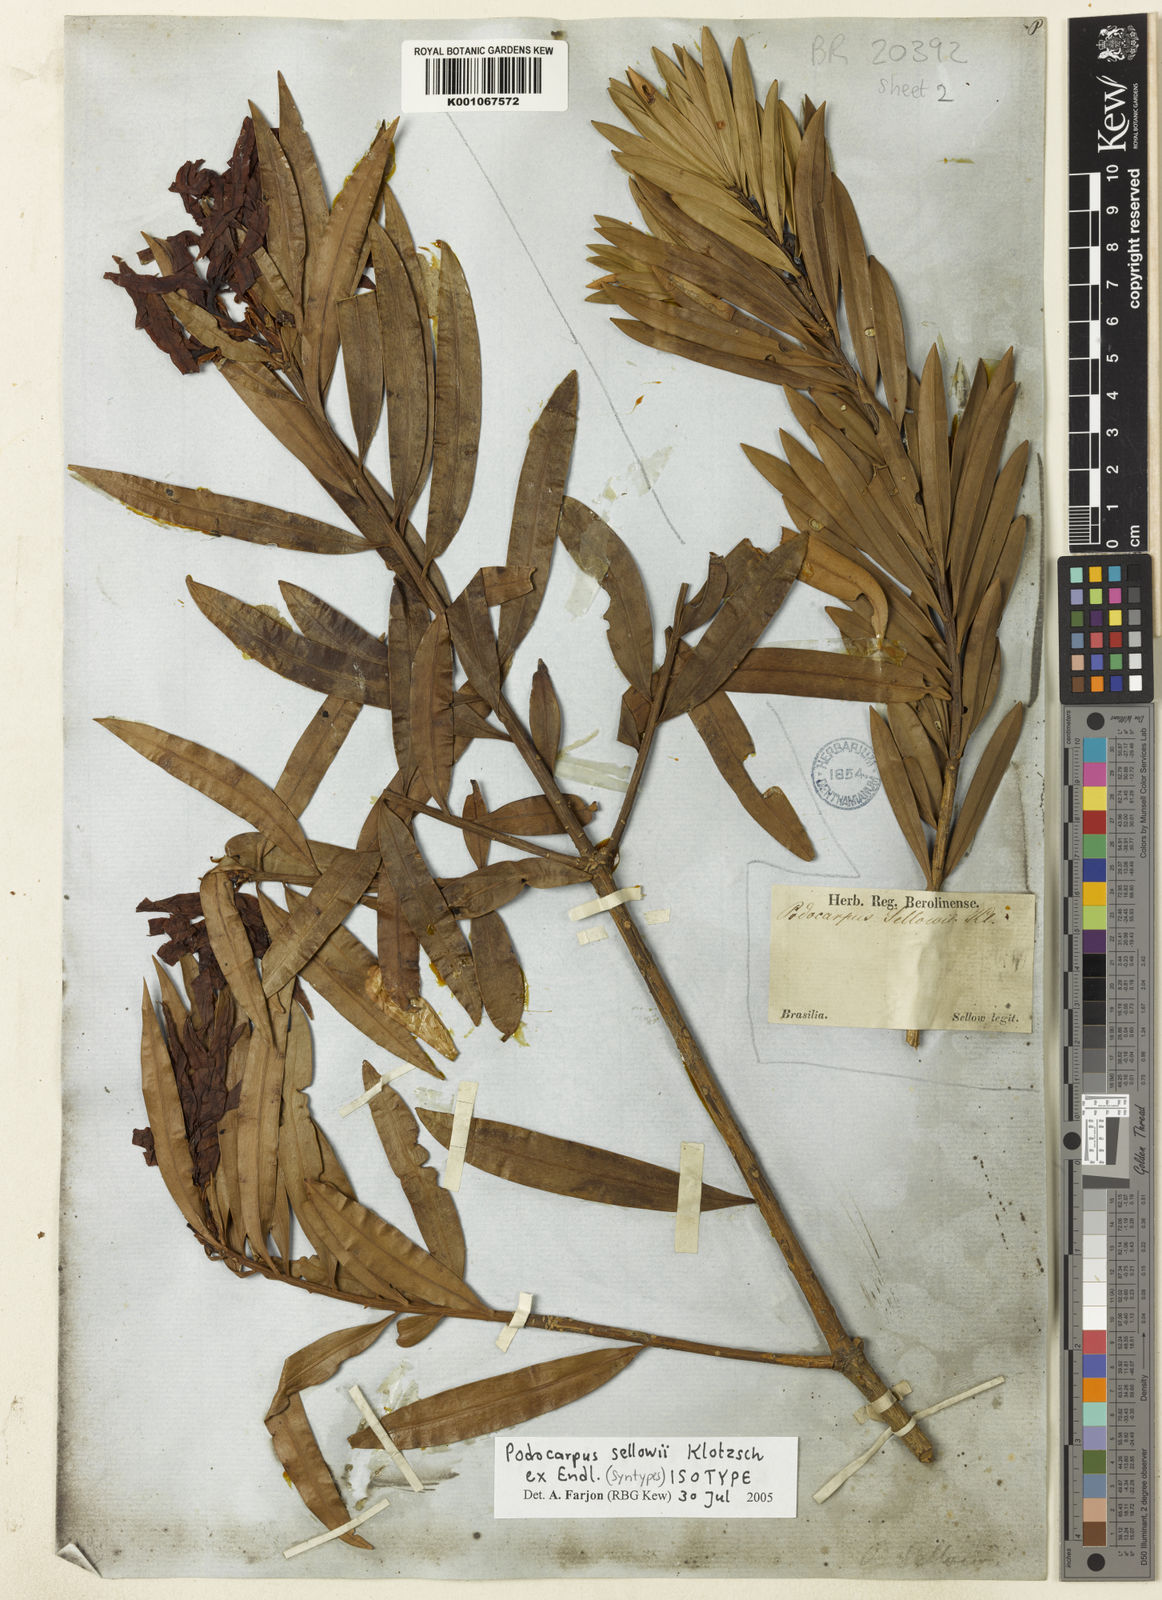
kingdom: Plantae
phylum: Tracheophyta
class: Pinopsida
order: Pinales
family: Podocarpaceae
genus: Podocarpus
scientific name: Podocarpus sellowii
